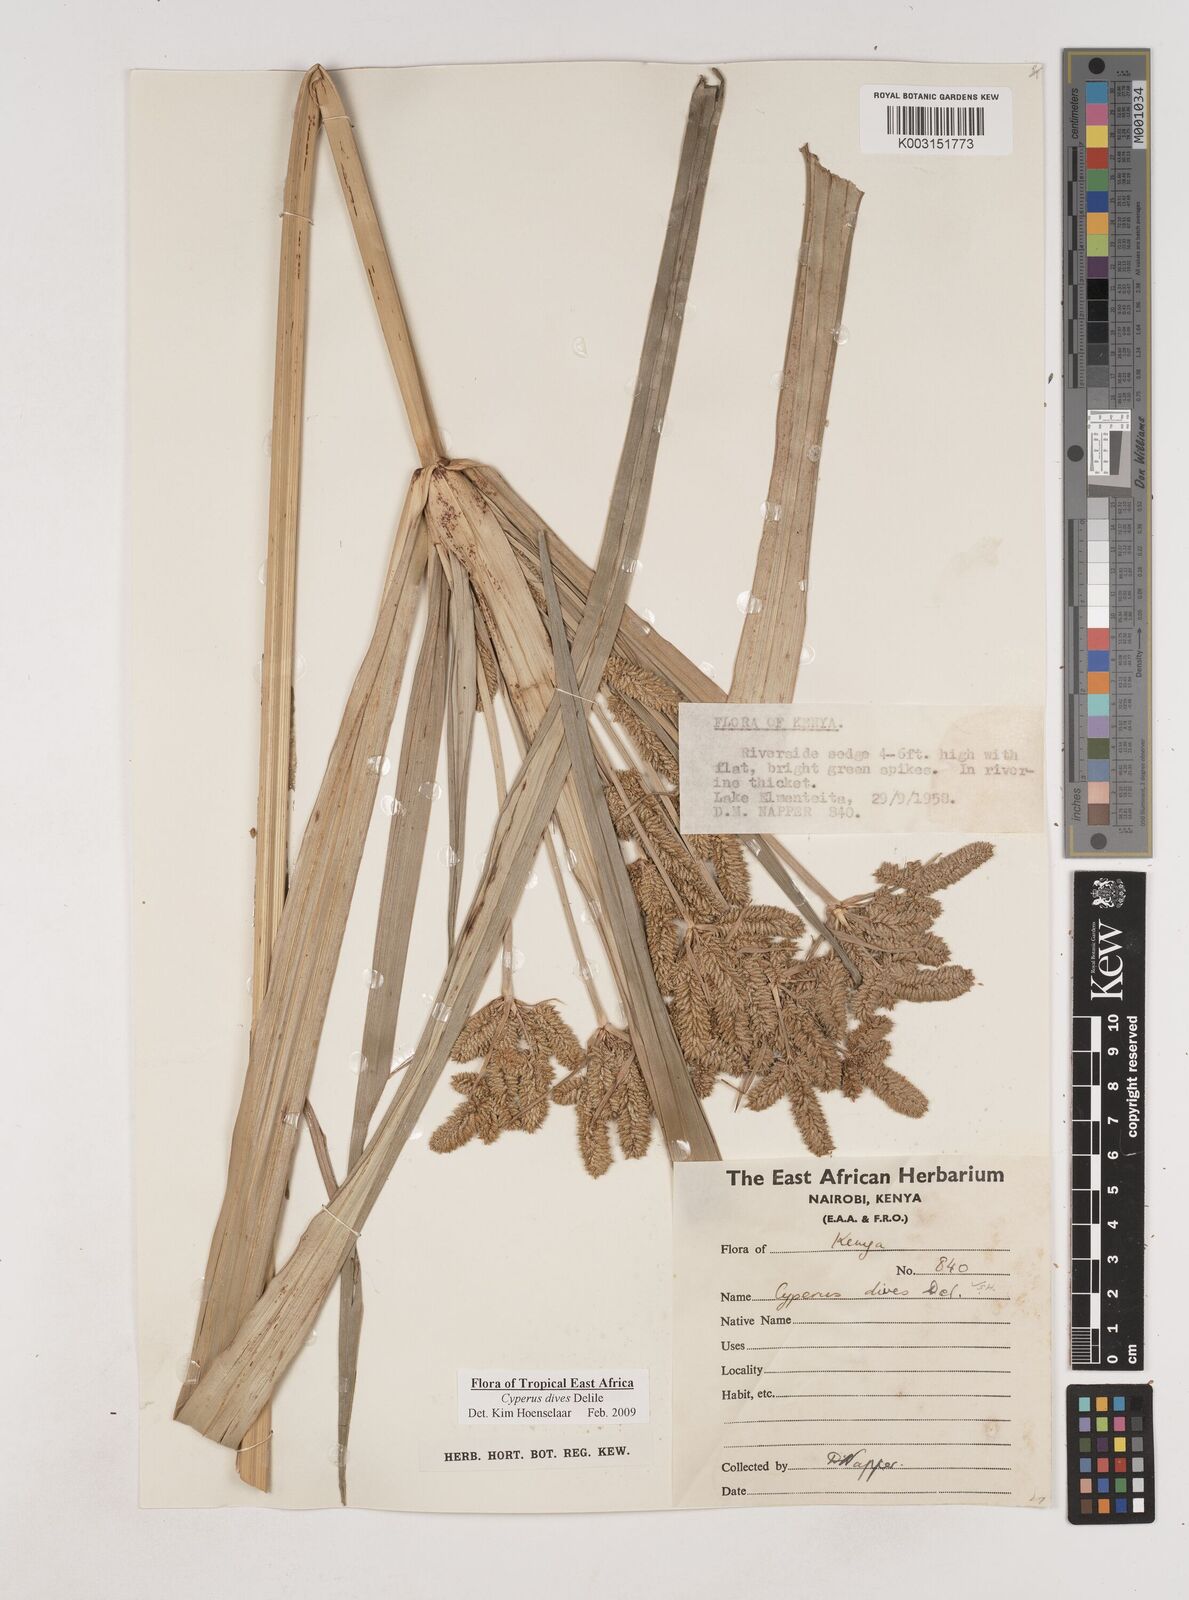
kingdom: Plantae
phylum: Tracheophyta
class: Liliopsida
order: Poales
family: Cyperaceae
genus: Cyperus
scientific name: Cyperus dives
